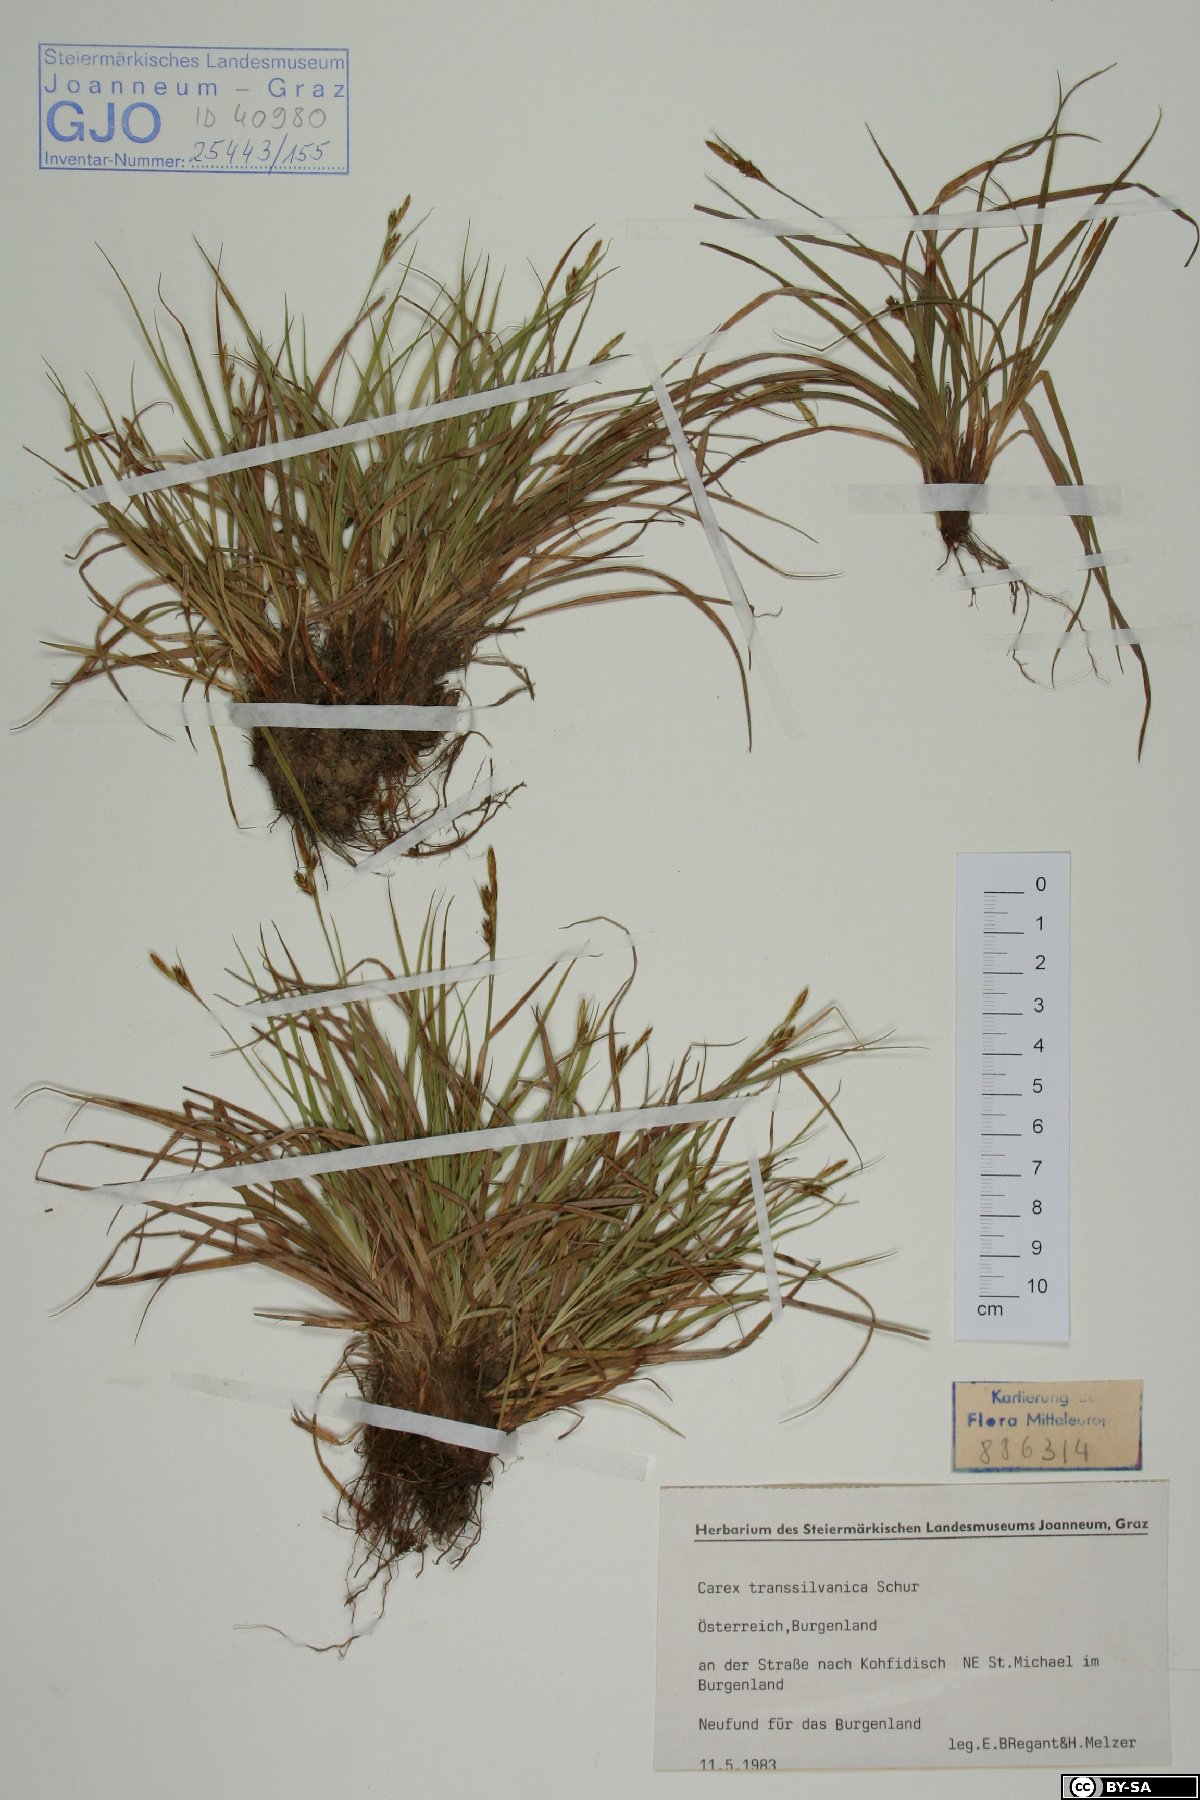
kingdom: Plantae
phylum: Tracheophyta
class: Liliopsida
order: Poales
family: Cyperaceae
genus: Carex
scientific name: Carex depressa
